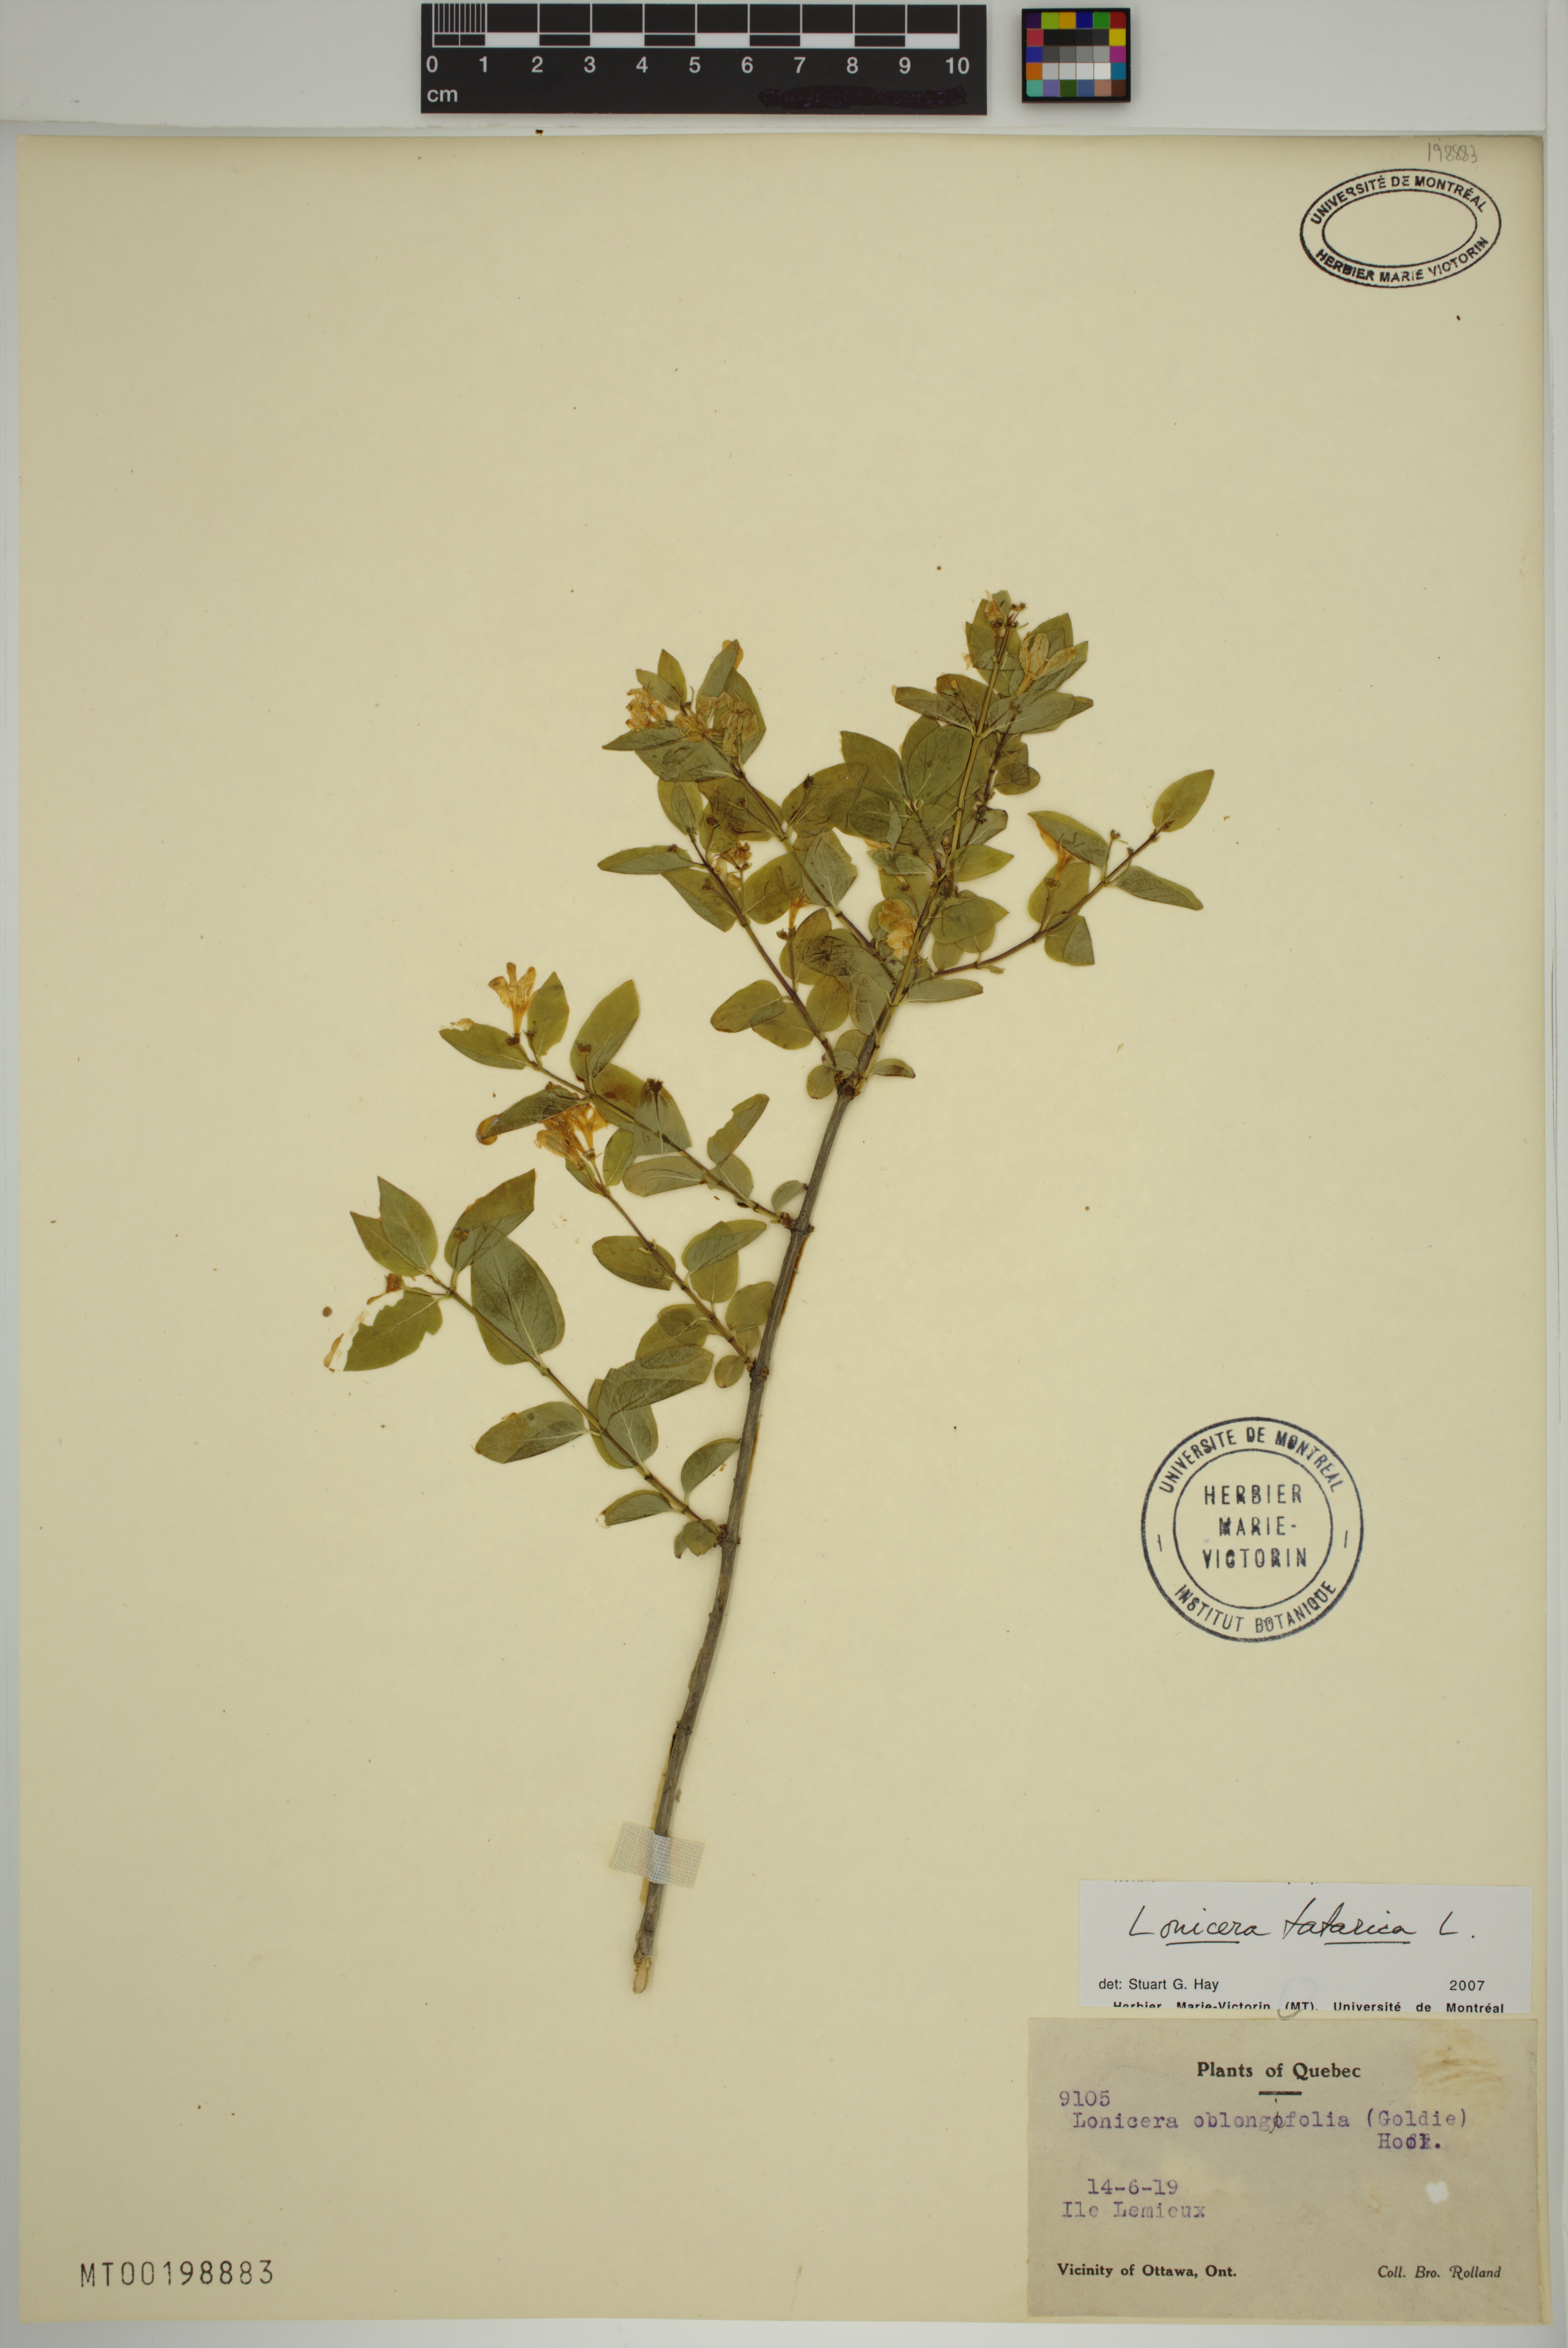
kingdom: Plantae
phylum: Tracheophyta
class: Magnoliopsida
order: Dipsacales
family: Caprifoliaceae
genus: Lonicera
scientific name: Lonicera tatarica
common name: Tatarian honeysuckle
